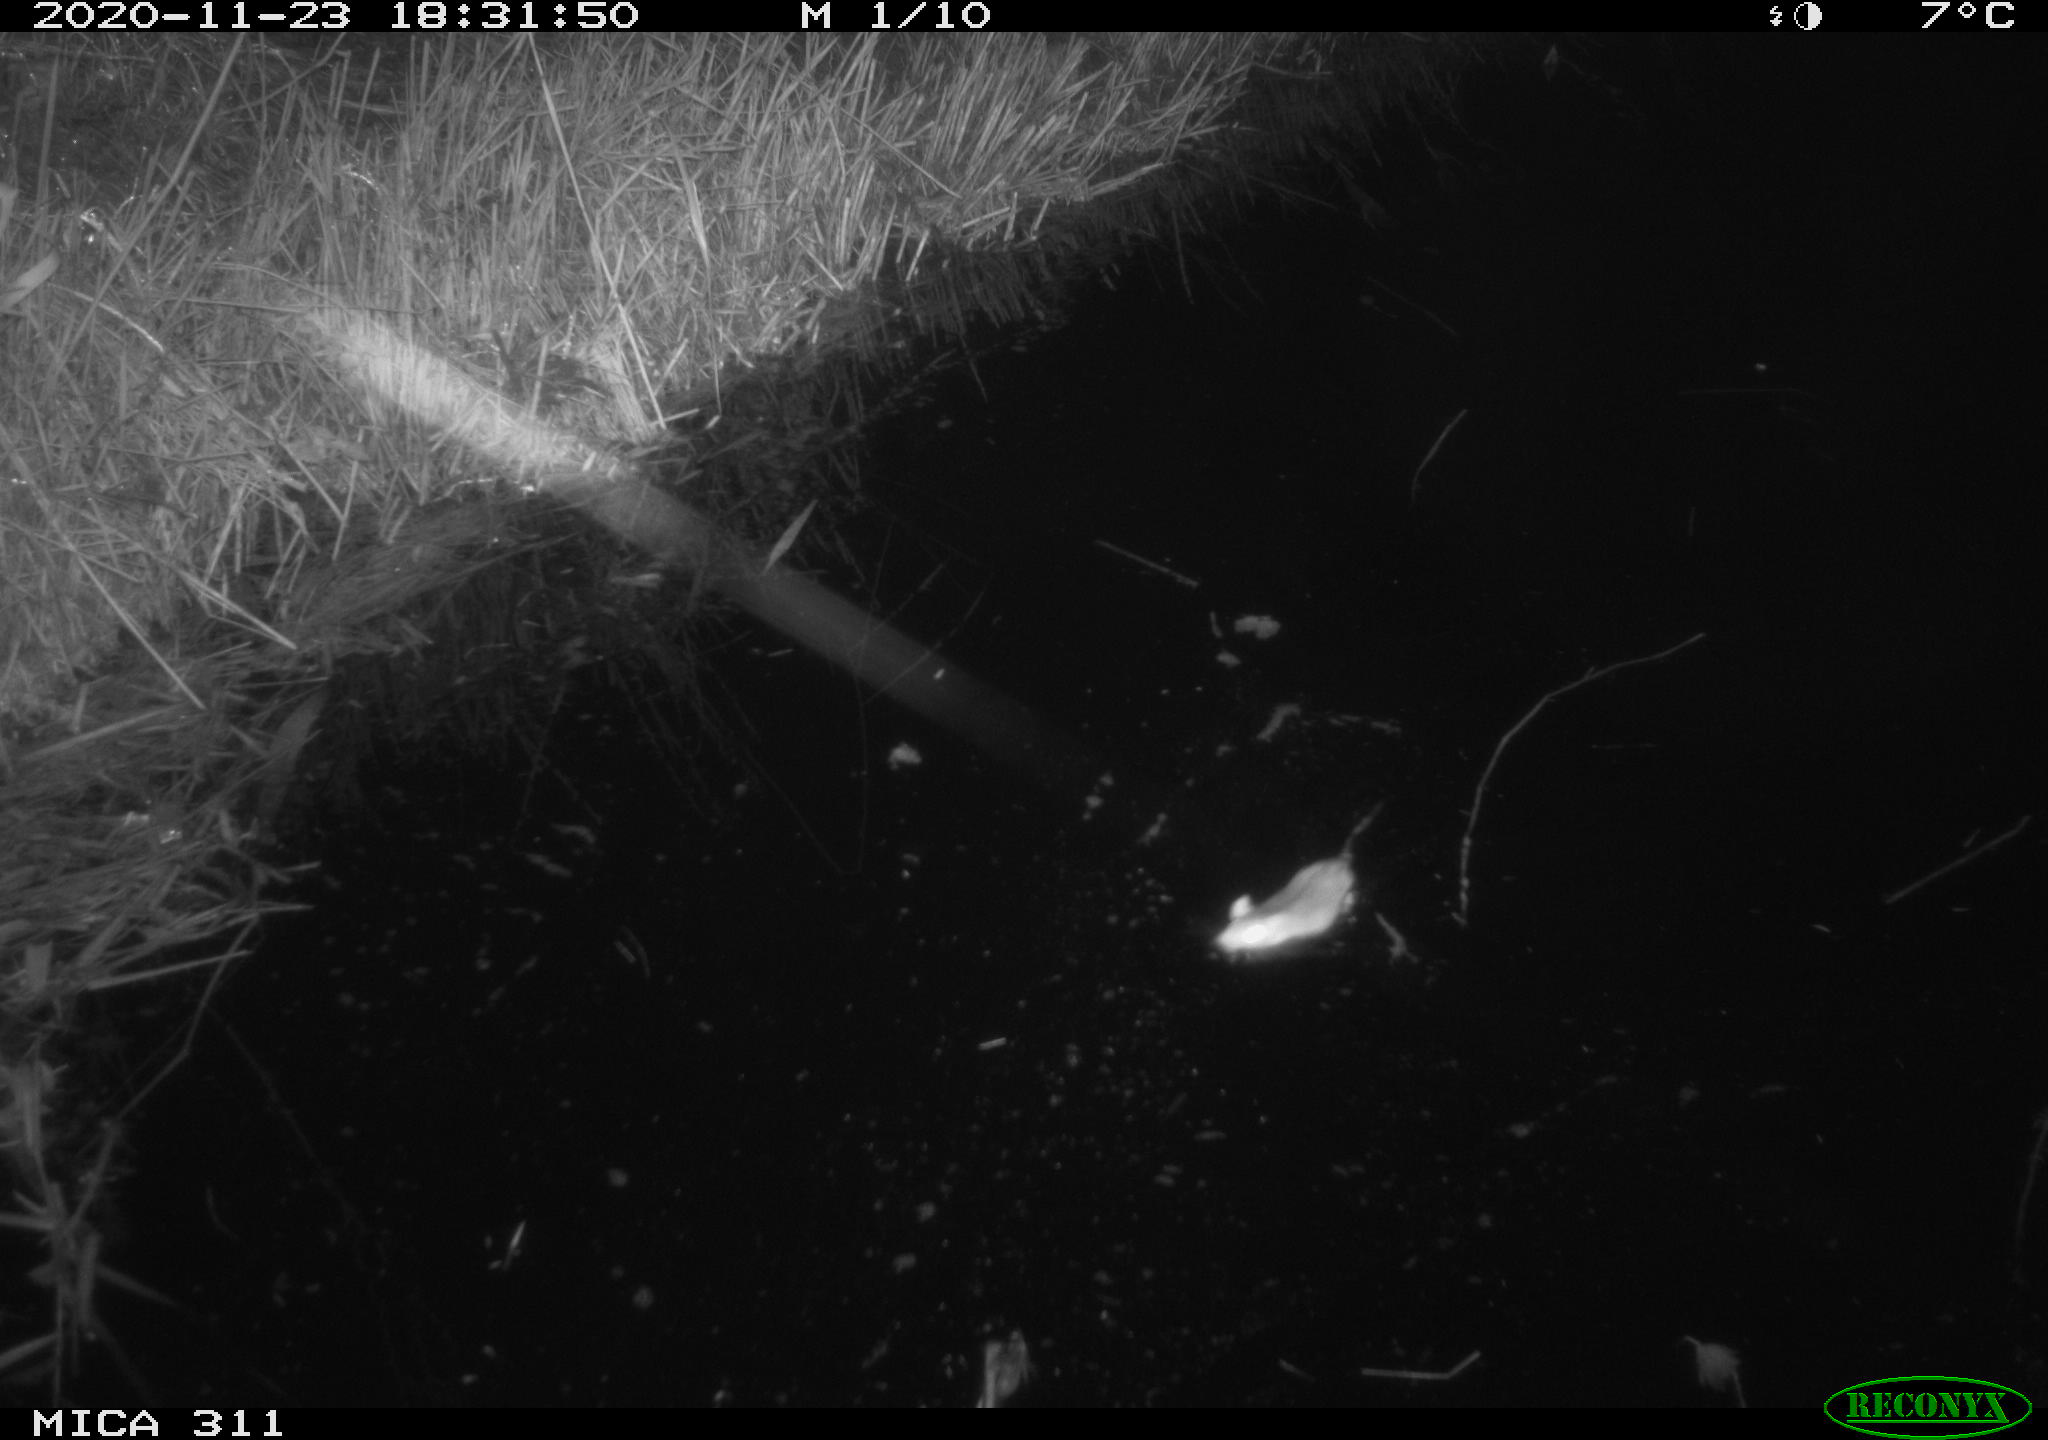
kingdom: Animalia
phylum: Chordata
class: Mammalia
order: Rodentia
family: Muridae
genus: Rattus
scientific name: Rattus norvegicus
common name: Brown rat
